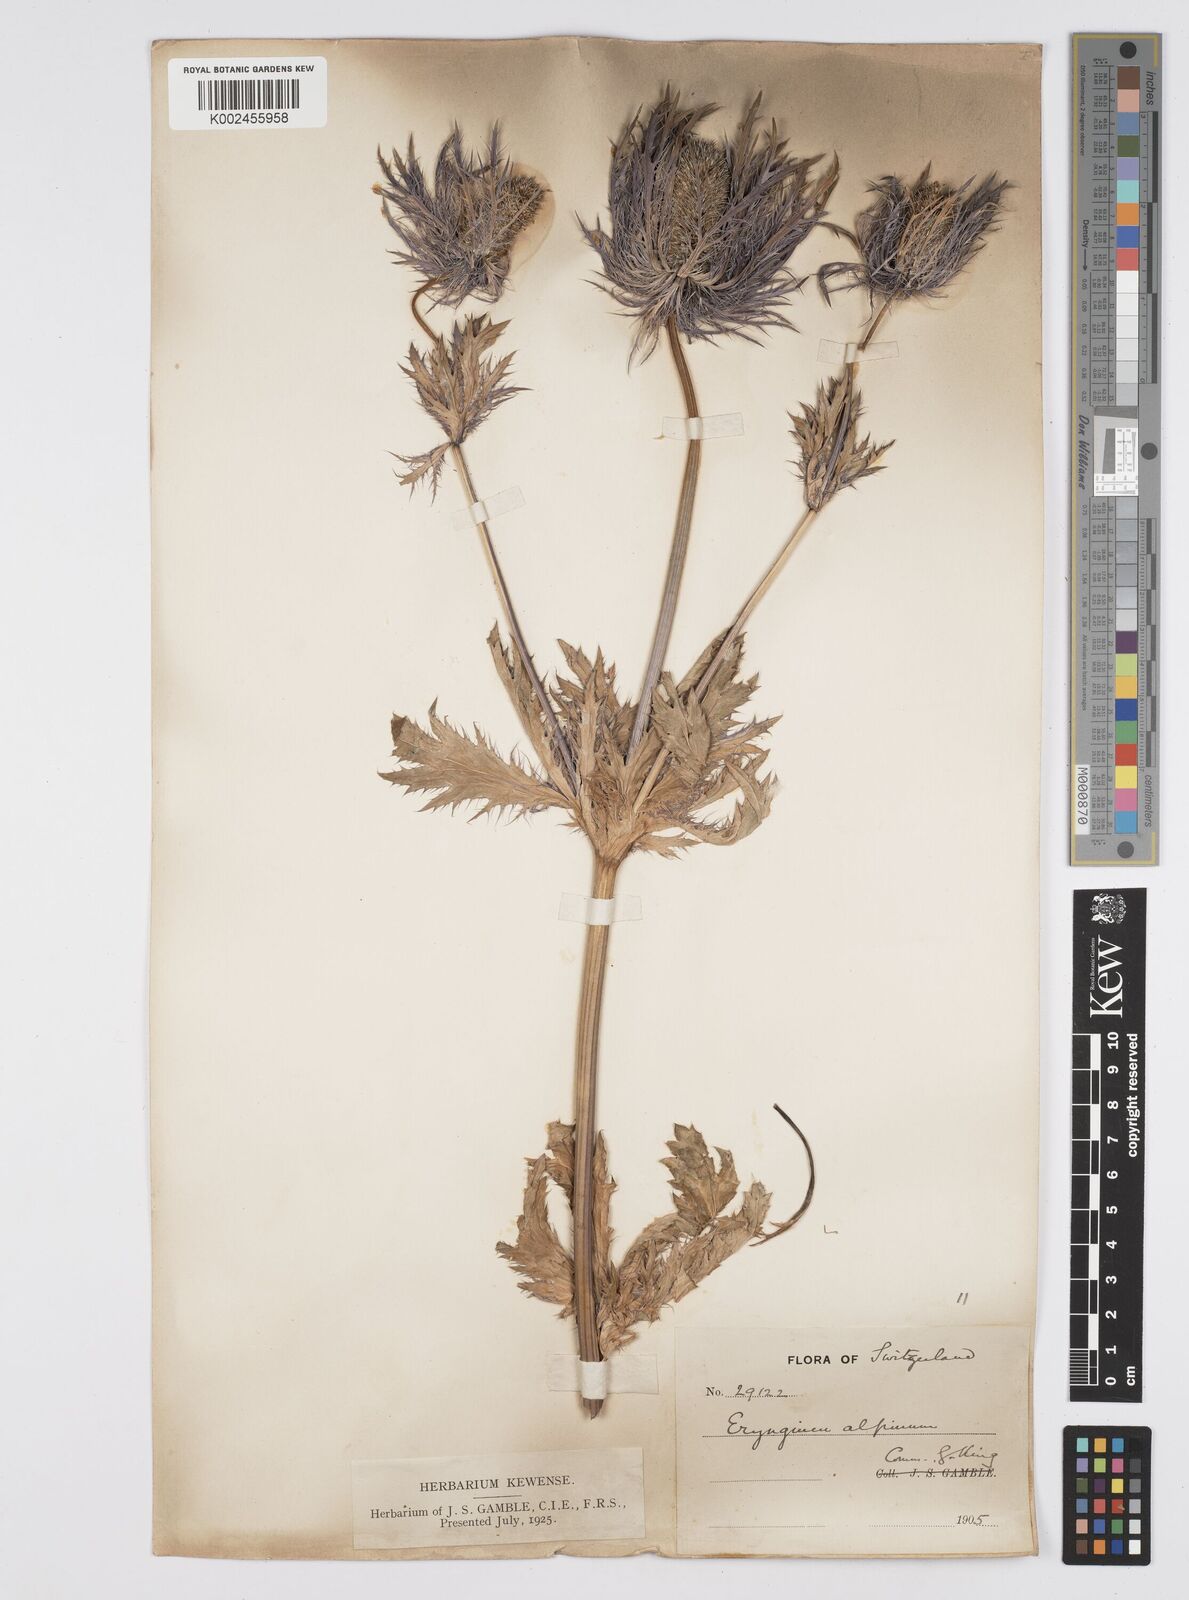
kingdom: Plantae
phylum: Tracheophyta
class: Magnoliopsida
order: Apiales
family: Apiaceae
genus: Eryngium
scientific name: Eryngium alpinum
